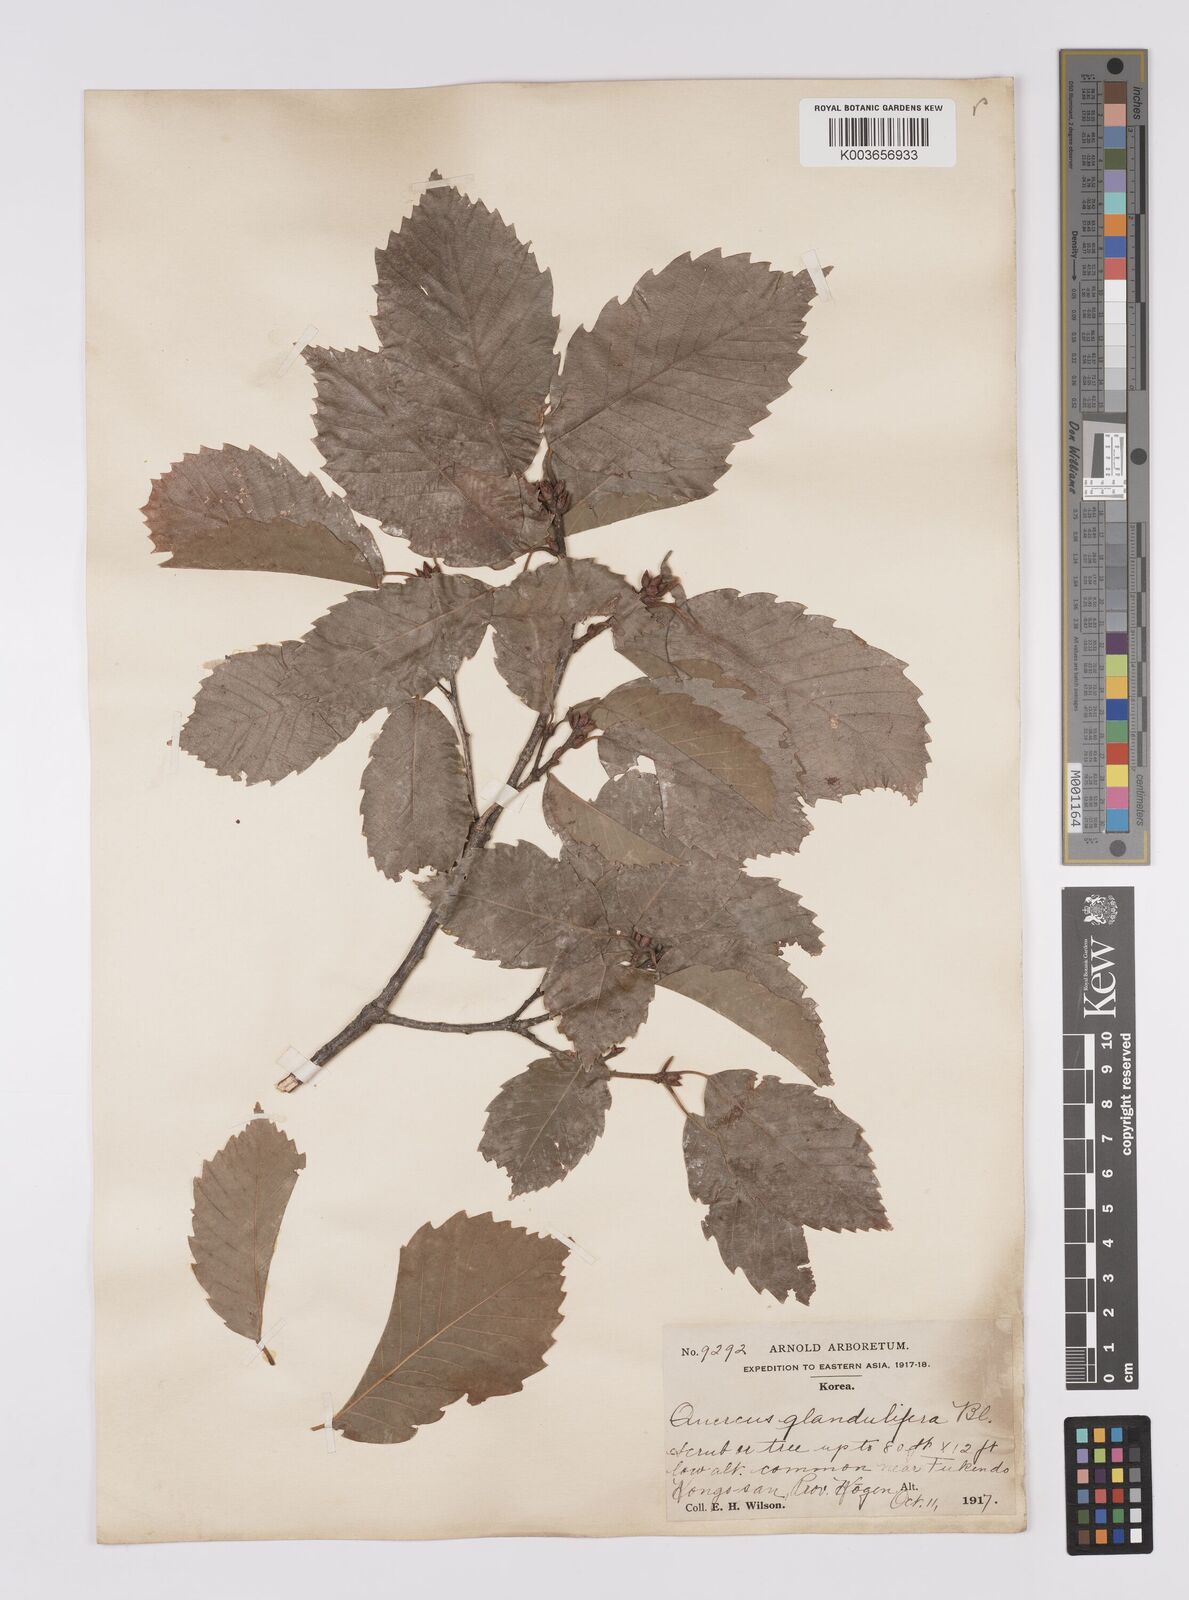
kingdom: Plantae
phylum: Tracheophyta
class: Magnoliopsida
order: Fagales
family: Fagaceae
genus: Quercus
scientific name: Quercus serrata
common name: Bao li
